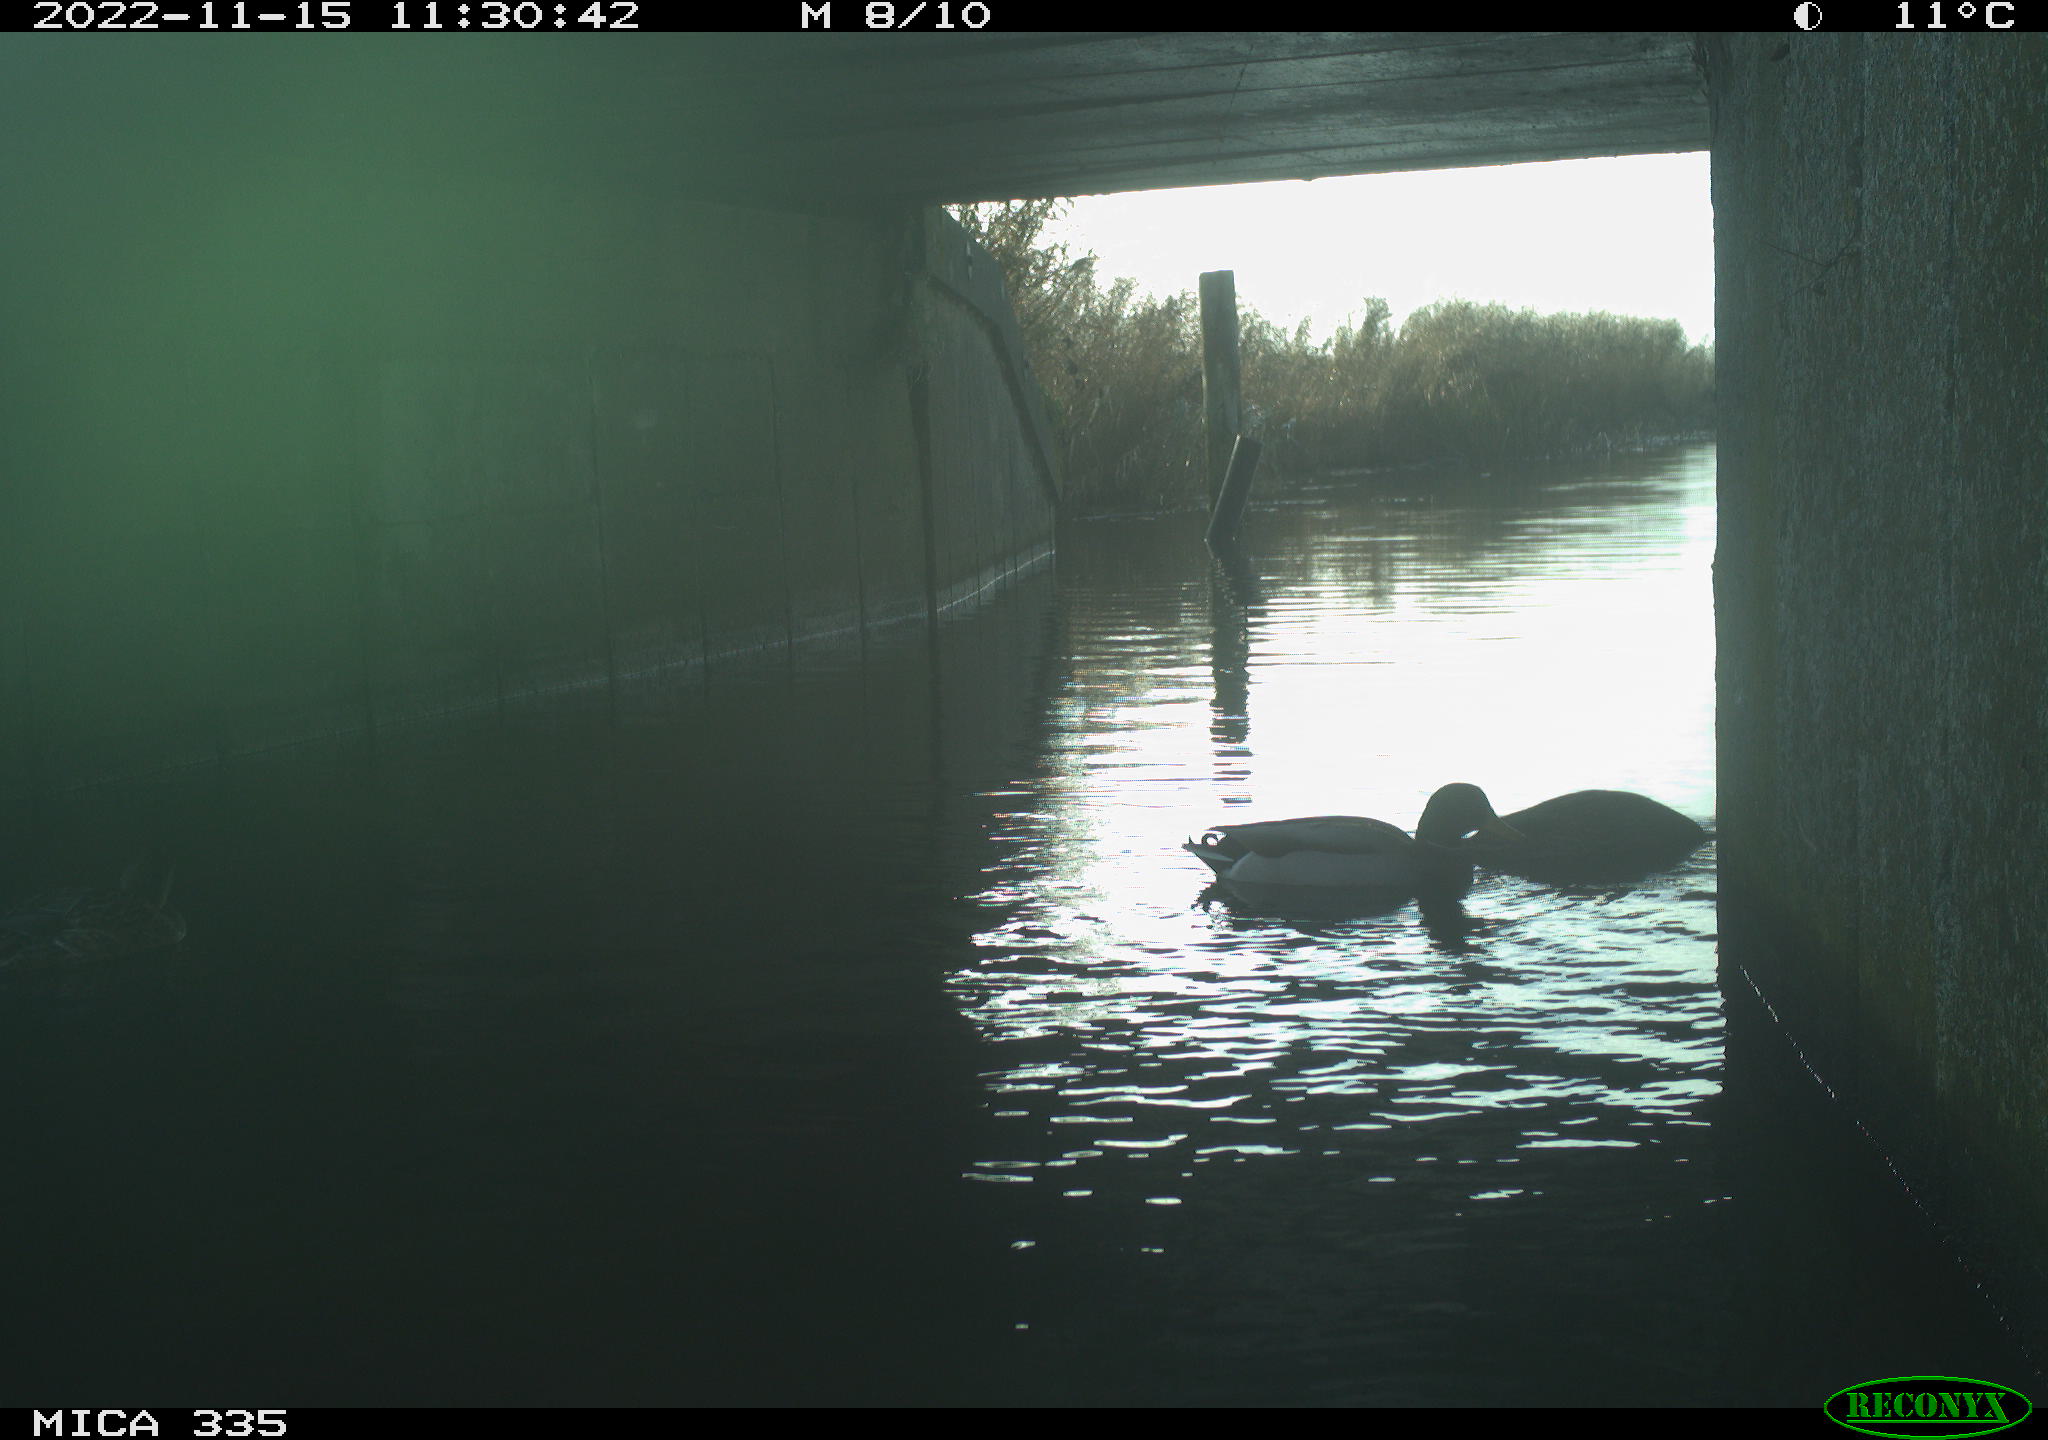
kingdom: Animalia
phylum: Chordata
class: Aves
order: Anseriformes
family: Anatidae
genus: Anas
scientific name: Anas platyrhynchos
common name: Mallard
